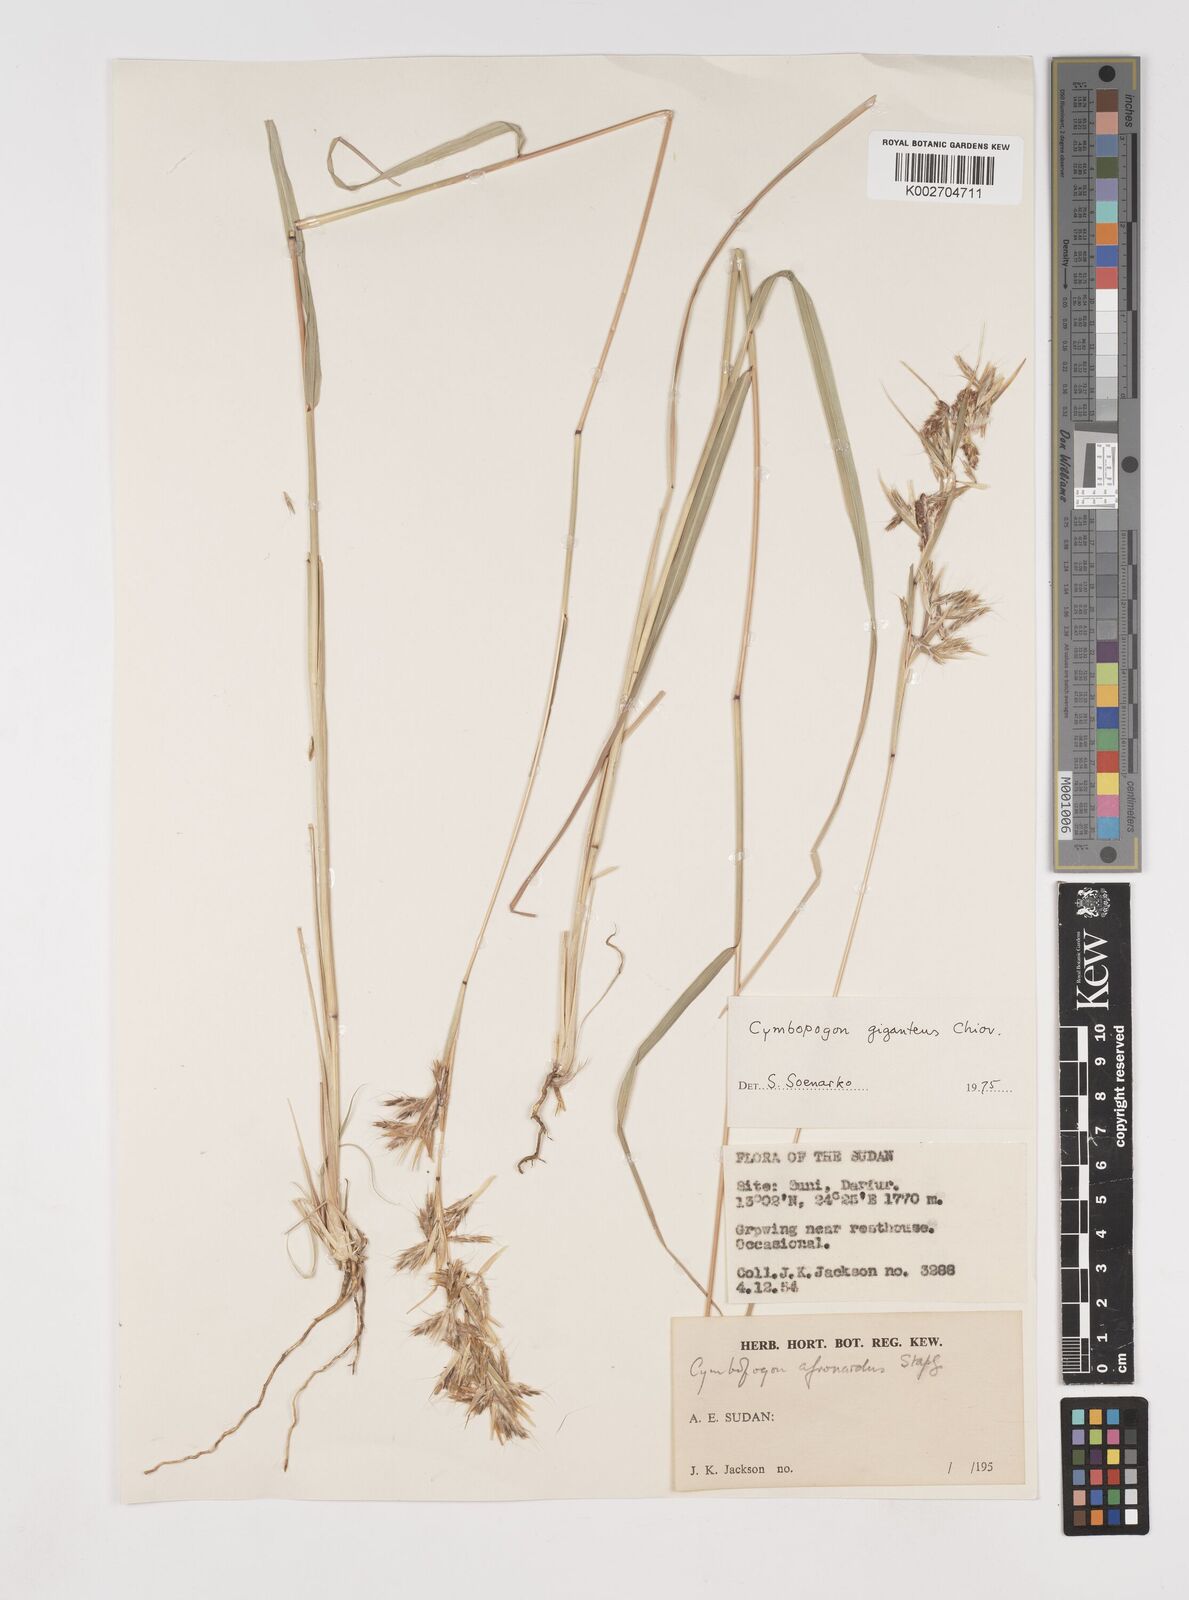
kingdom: Plantae
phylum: Tracheophyta
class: Liliopsida
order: Poales
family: Poaceae
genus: Cymbopogon
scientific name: Cymbopogon
